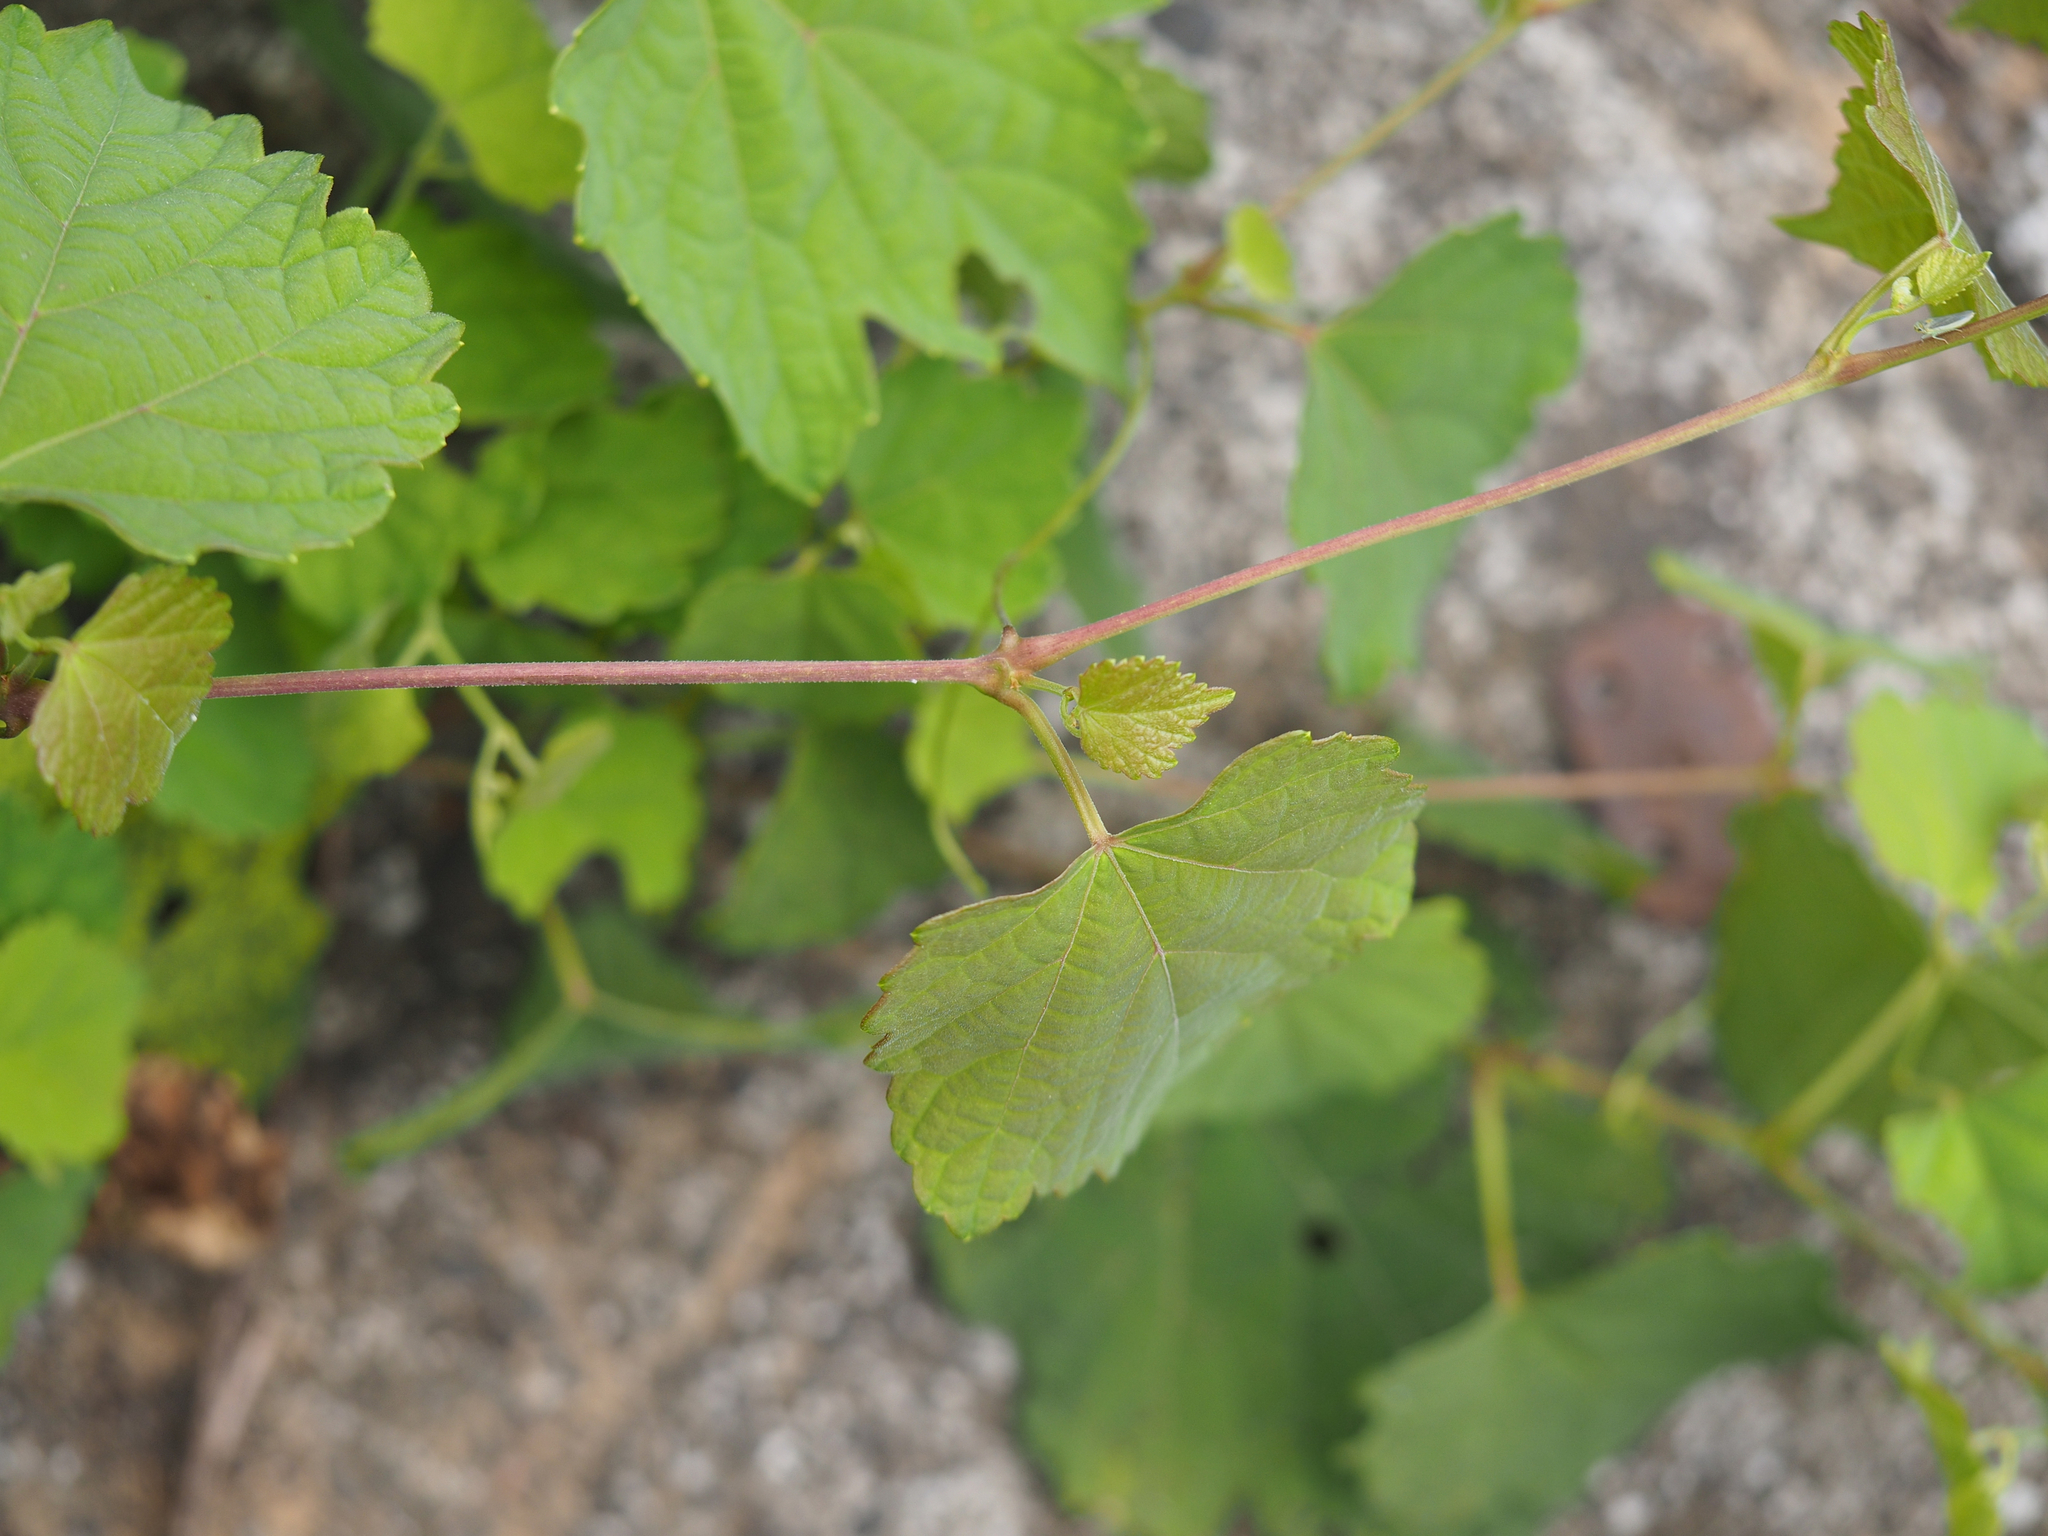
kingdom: Plantae
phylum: Tracheophyta
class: Magnoliopsida
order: Vitales
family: Vitaceae
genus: Ampelopsis
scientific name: Ampelopsis glandulosa
